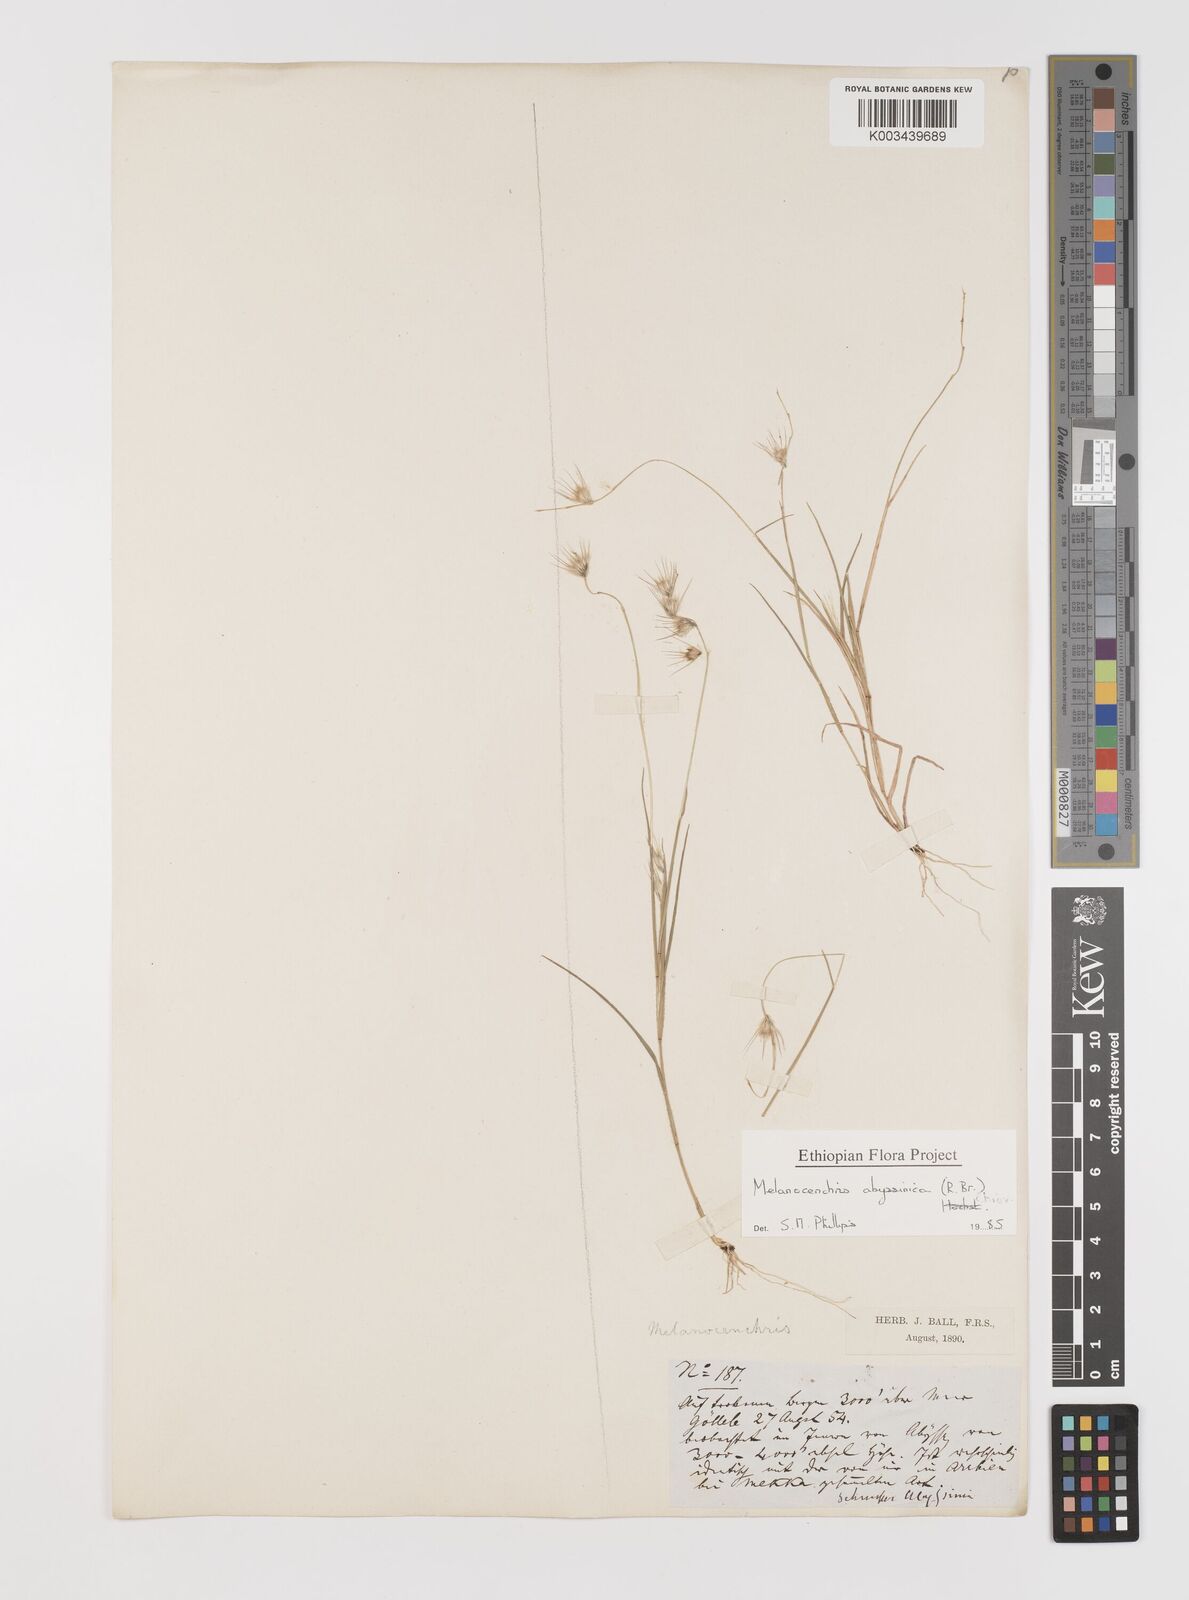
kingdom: Plantae
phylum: Tracheophyta
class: Liliopsida
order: Poales
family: Poaceae
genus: Melanocenchris
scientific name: Melanocenchris abyssinica
